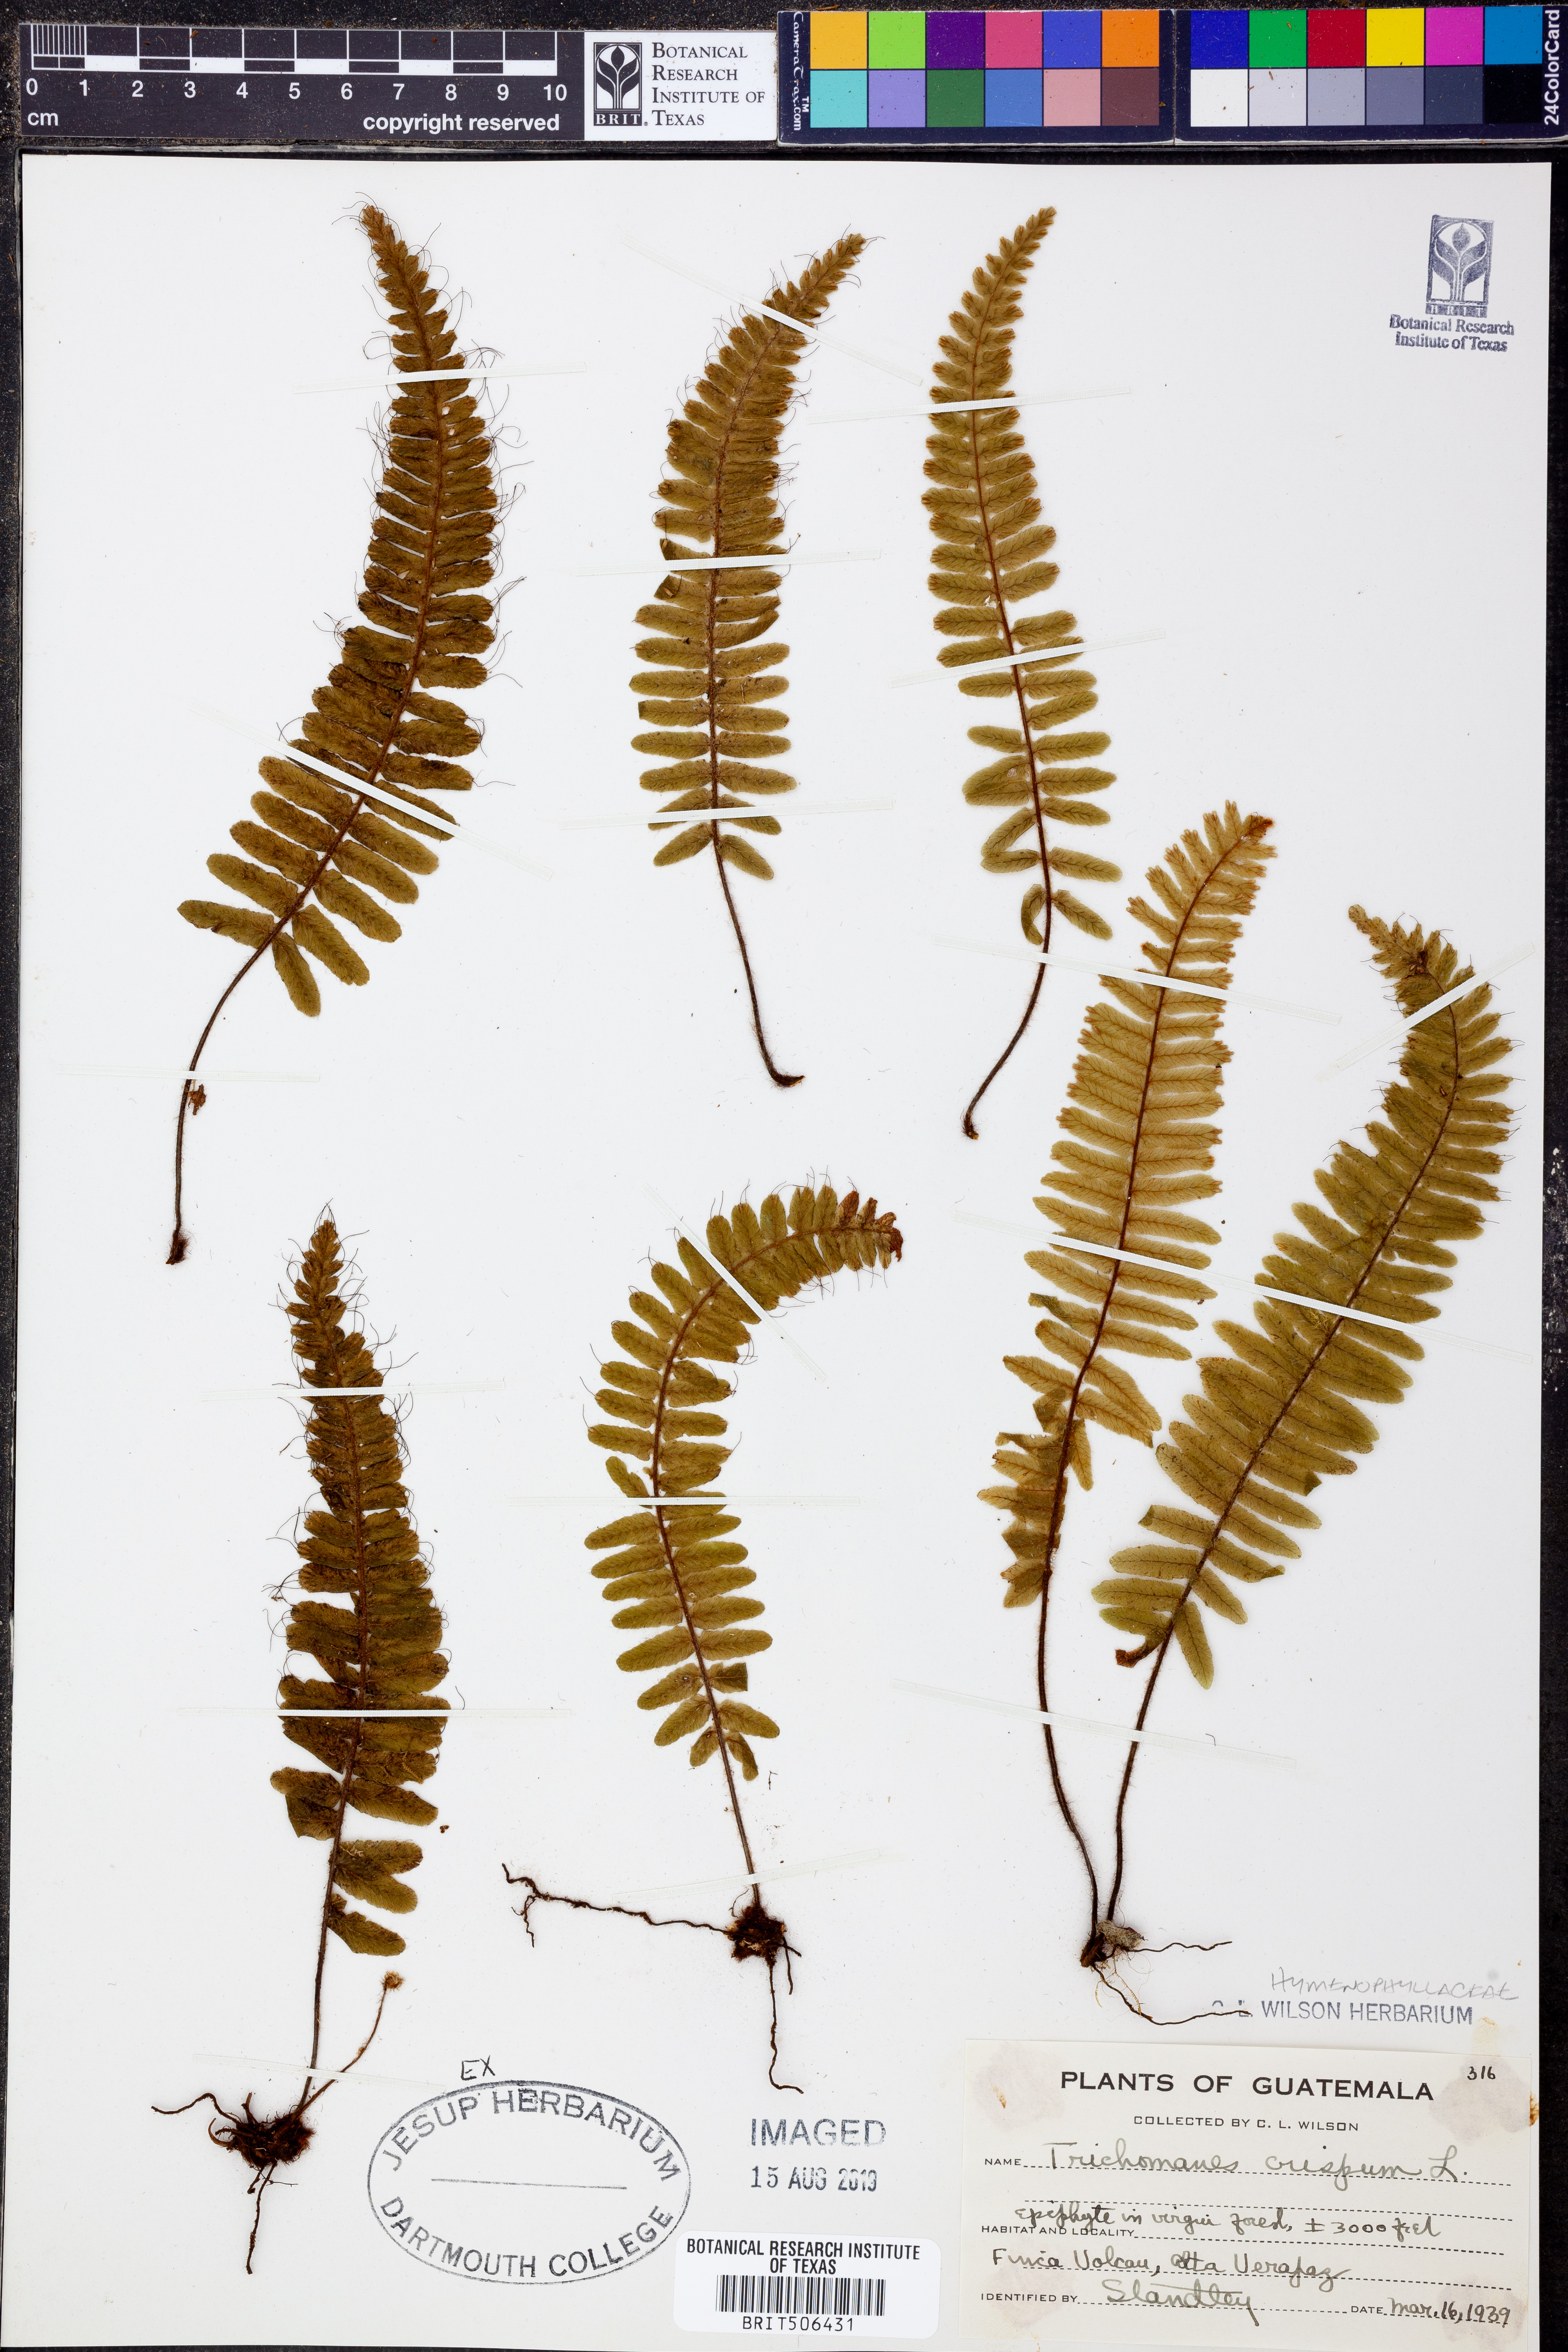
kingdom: Plantae
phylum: Tracheophyta
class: Polypodiopsida
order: Hymenophyllales
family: Hymenophyllaceae
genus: Trichomanes
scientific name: Trichomanes crispum
